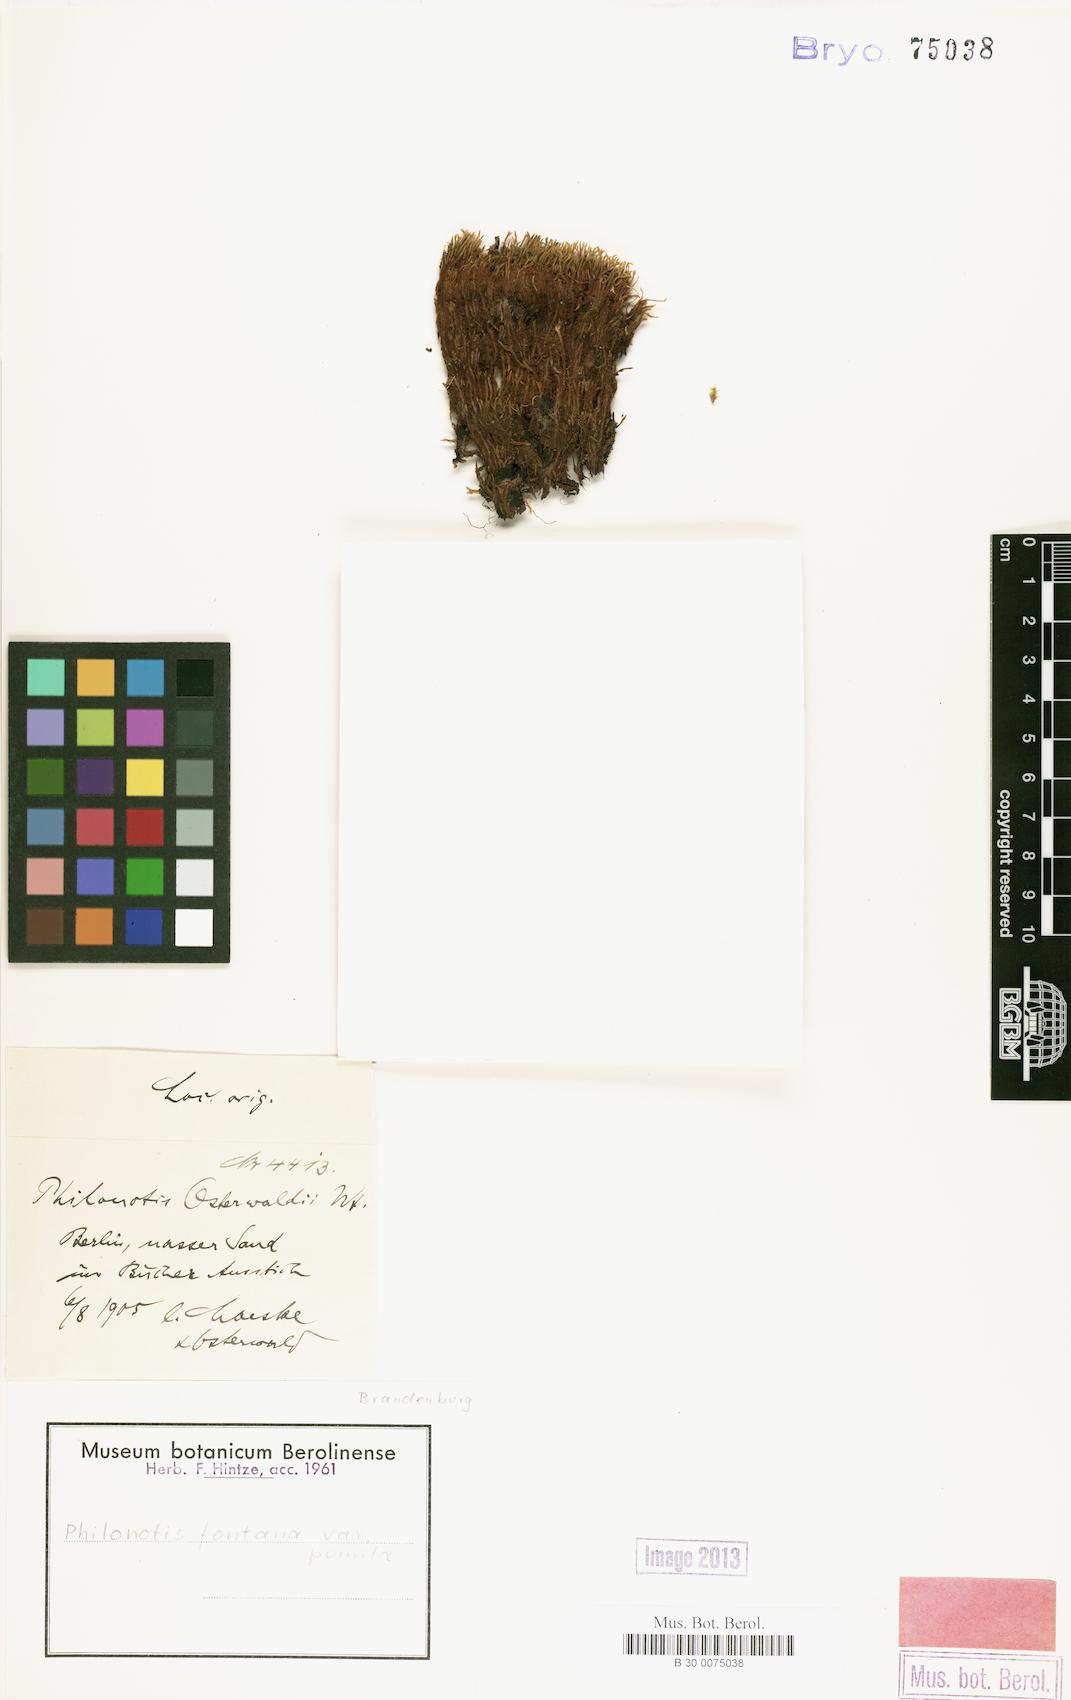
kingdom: Plantae
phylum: Bryophyta
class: Bryopsida
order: Bartramiales
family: Bartramiaceae
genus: Philonotis
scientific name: Philonotis tomentella
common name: Woolly apple moss
